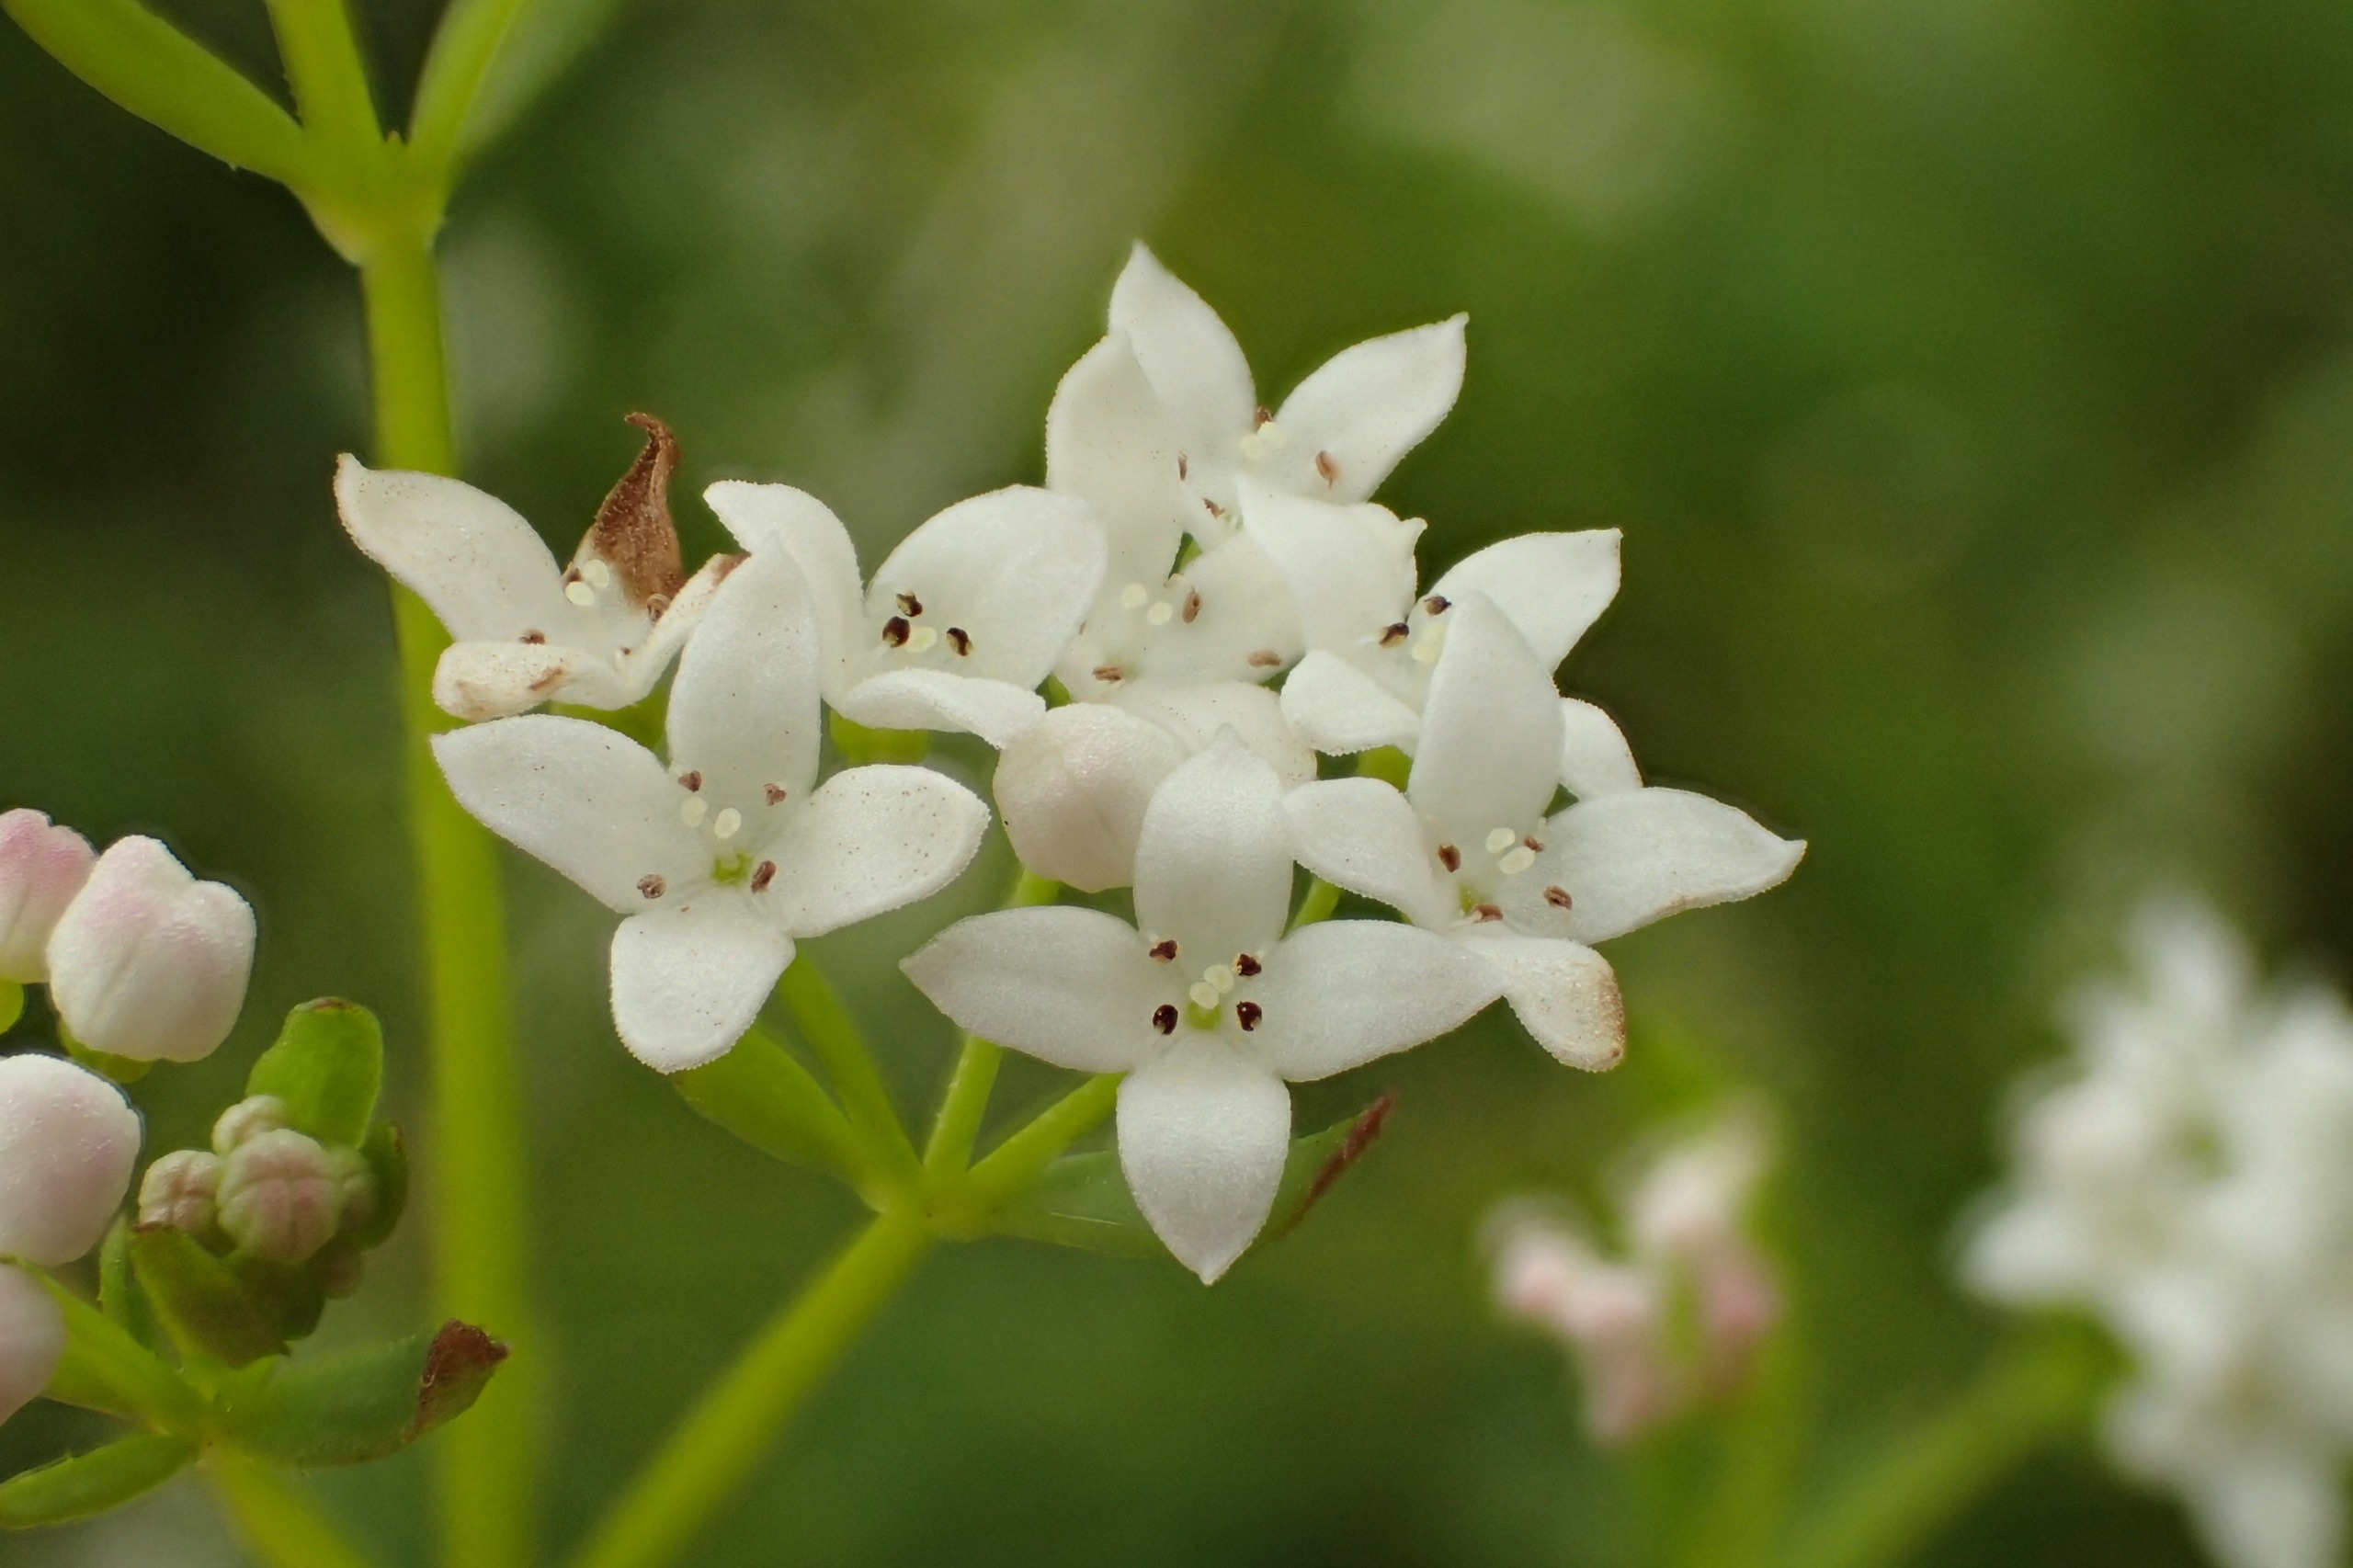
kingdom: Plantae
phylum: Tracheophyta
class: Magnoliopsida
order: Gentianales
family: Rubiaceae
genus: Galium
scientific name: Galium palustre
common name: Kær-snerre
